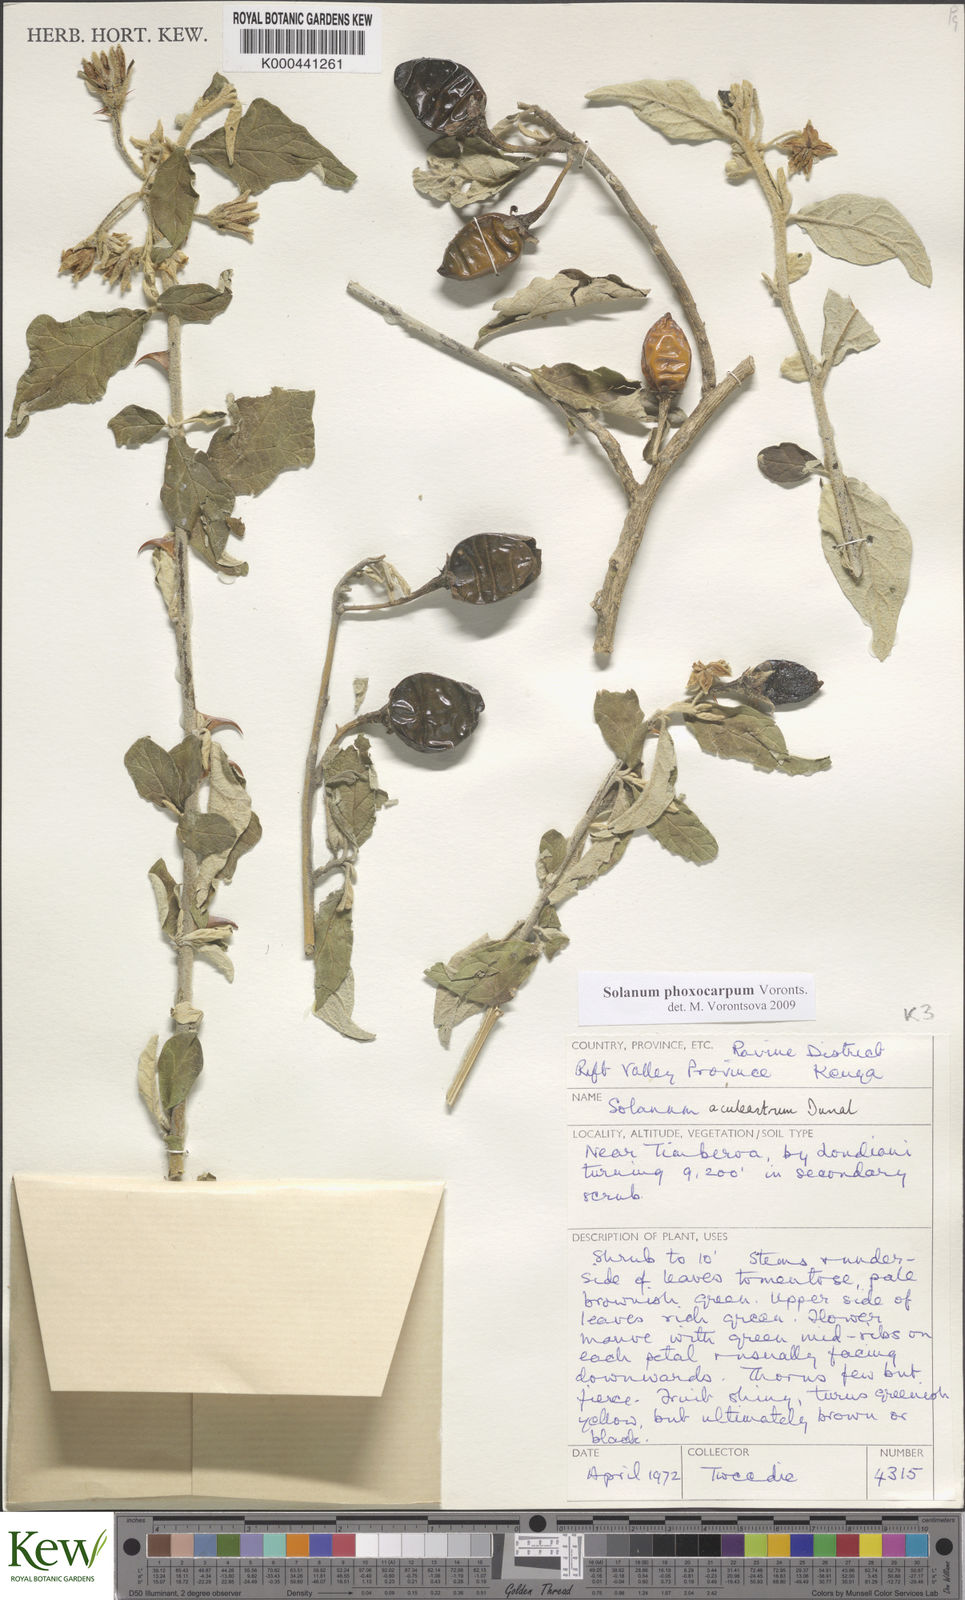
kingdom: Plantae
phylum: Tracheophyta
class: Magnoliopsida
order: Solanales
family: Solanaceae
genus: Solanum
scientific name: Solanum phoxocarpum
